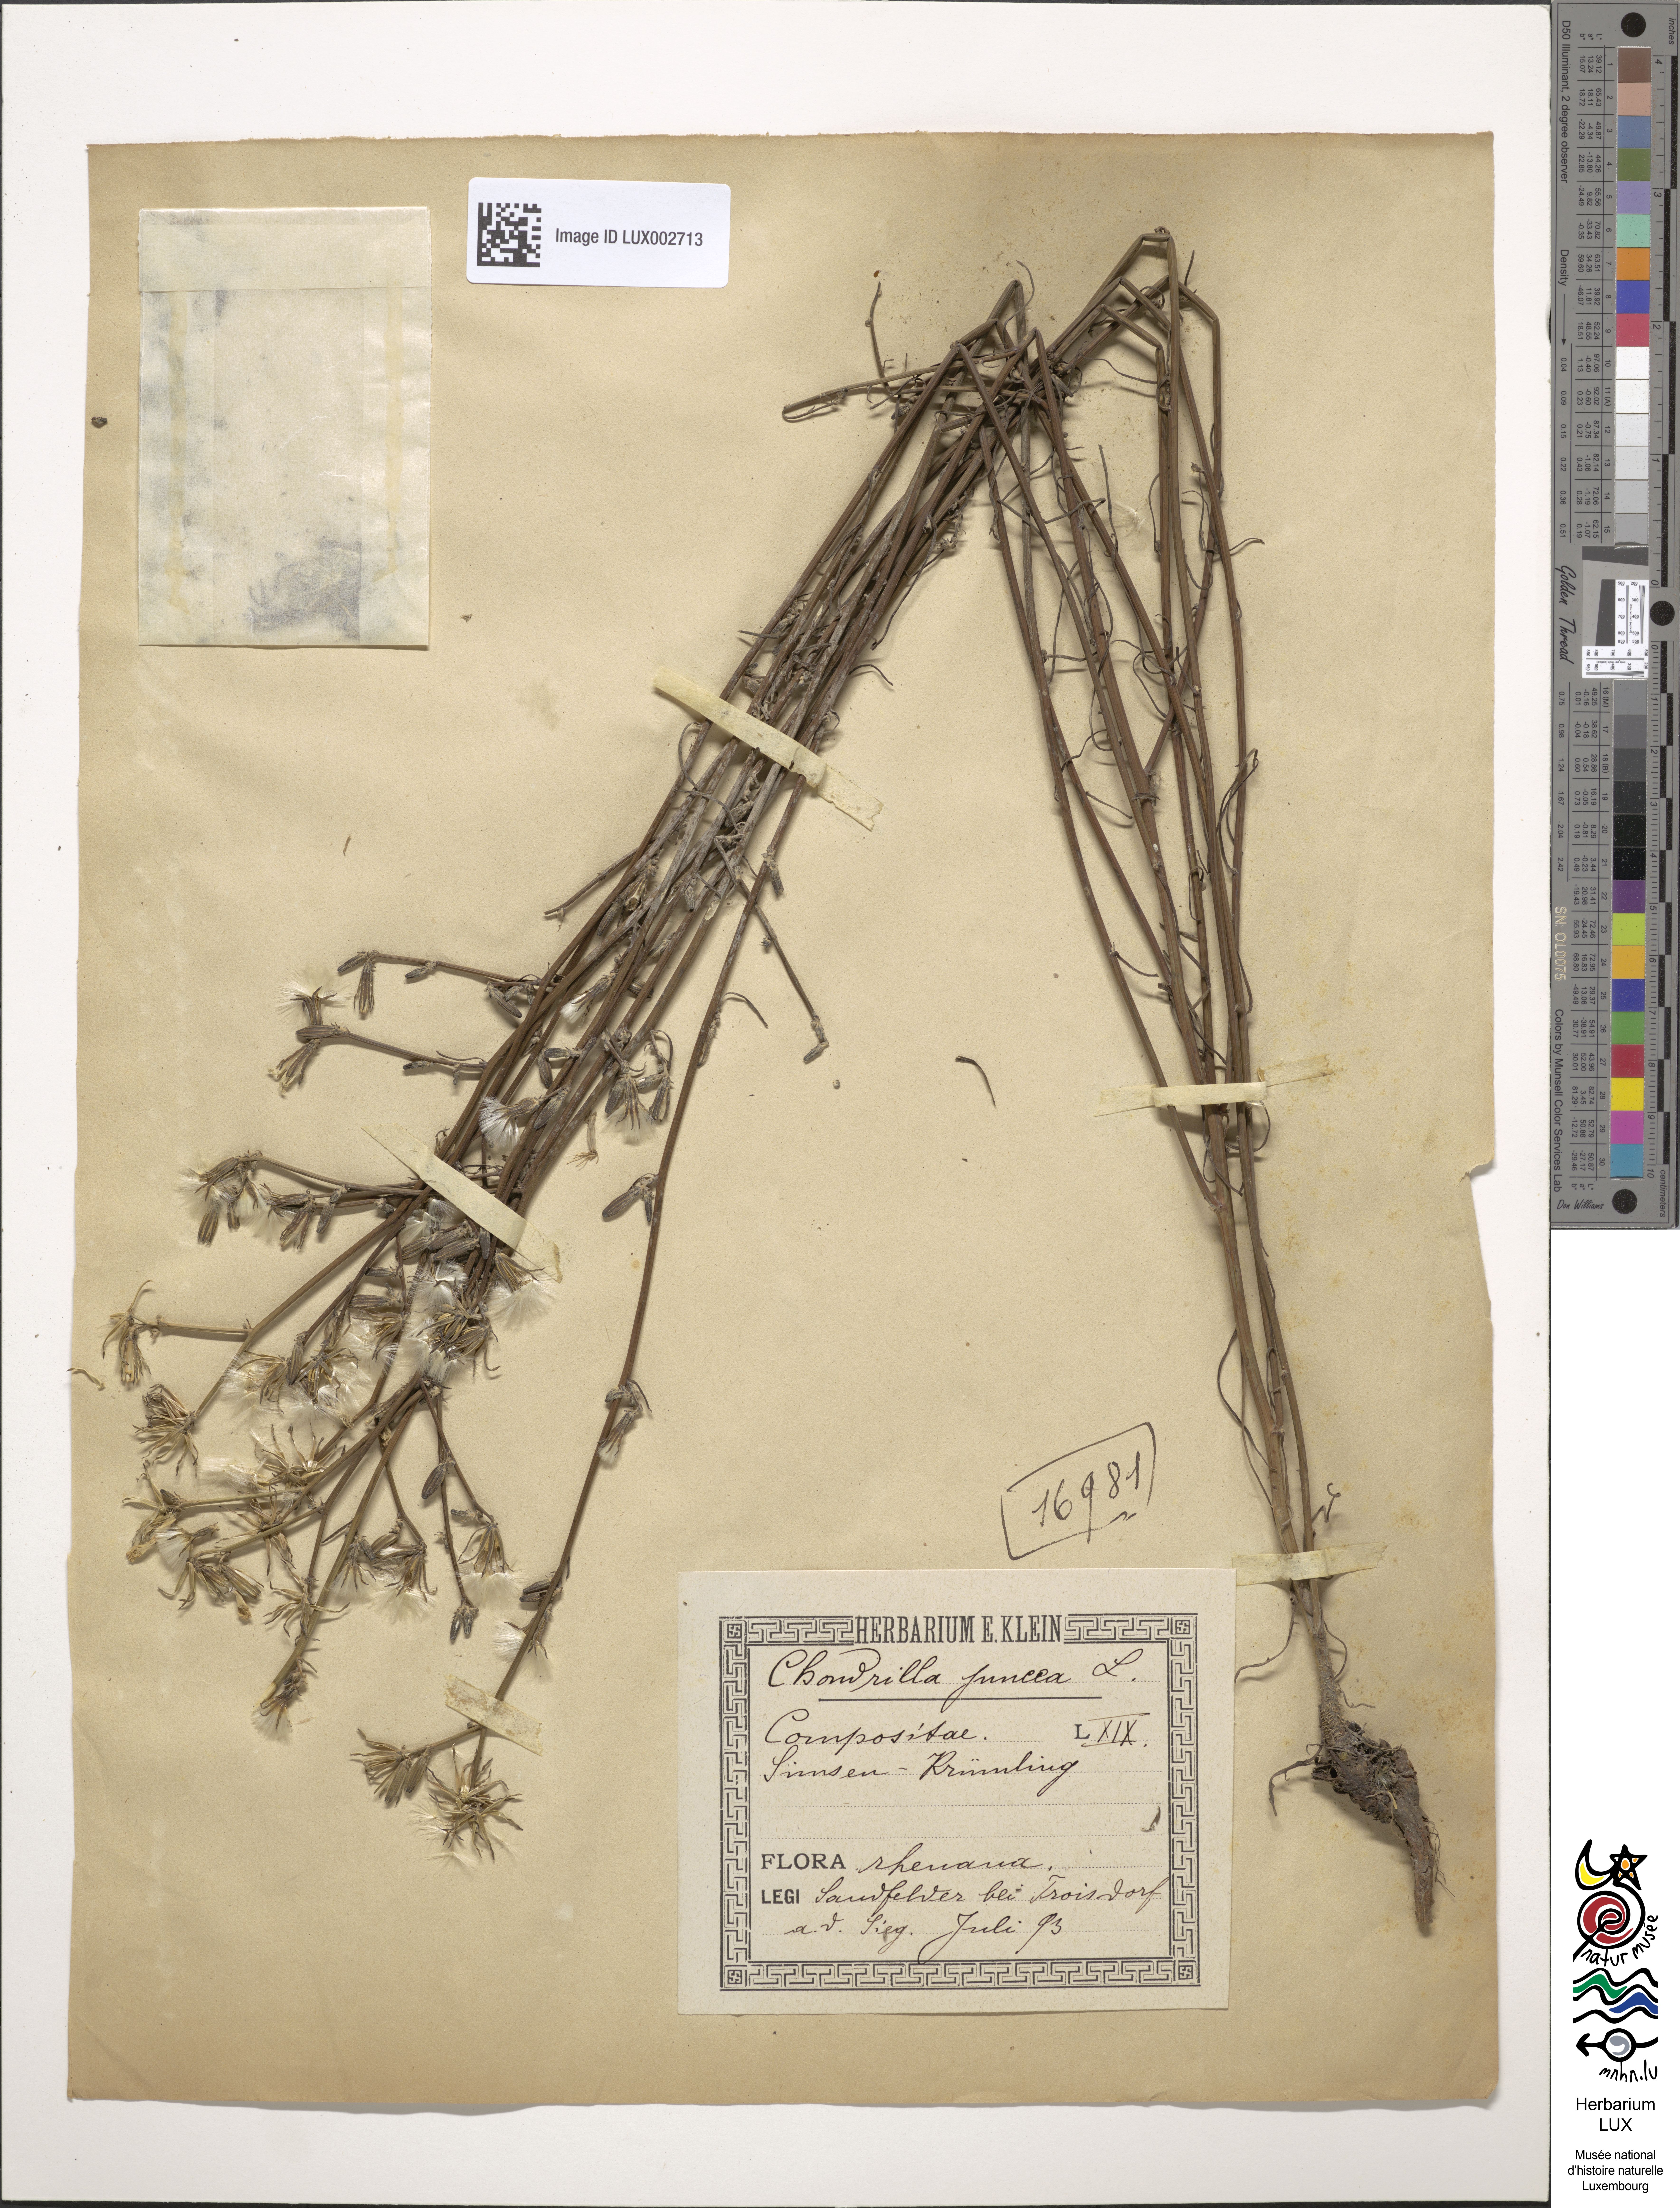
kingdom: Plantae
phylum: Tracheophyta
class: Magnoliopsida
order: Asterales
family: Asteraceae
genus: Chondrilla
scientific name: Chondrilla juncea
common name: Skeleton weed
